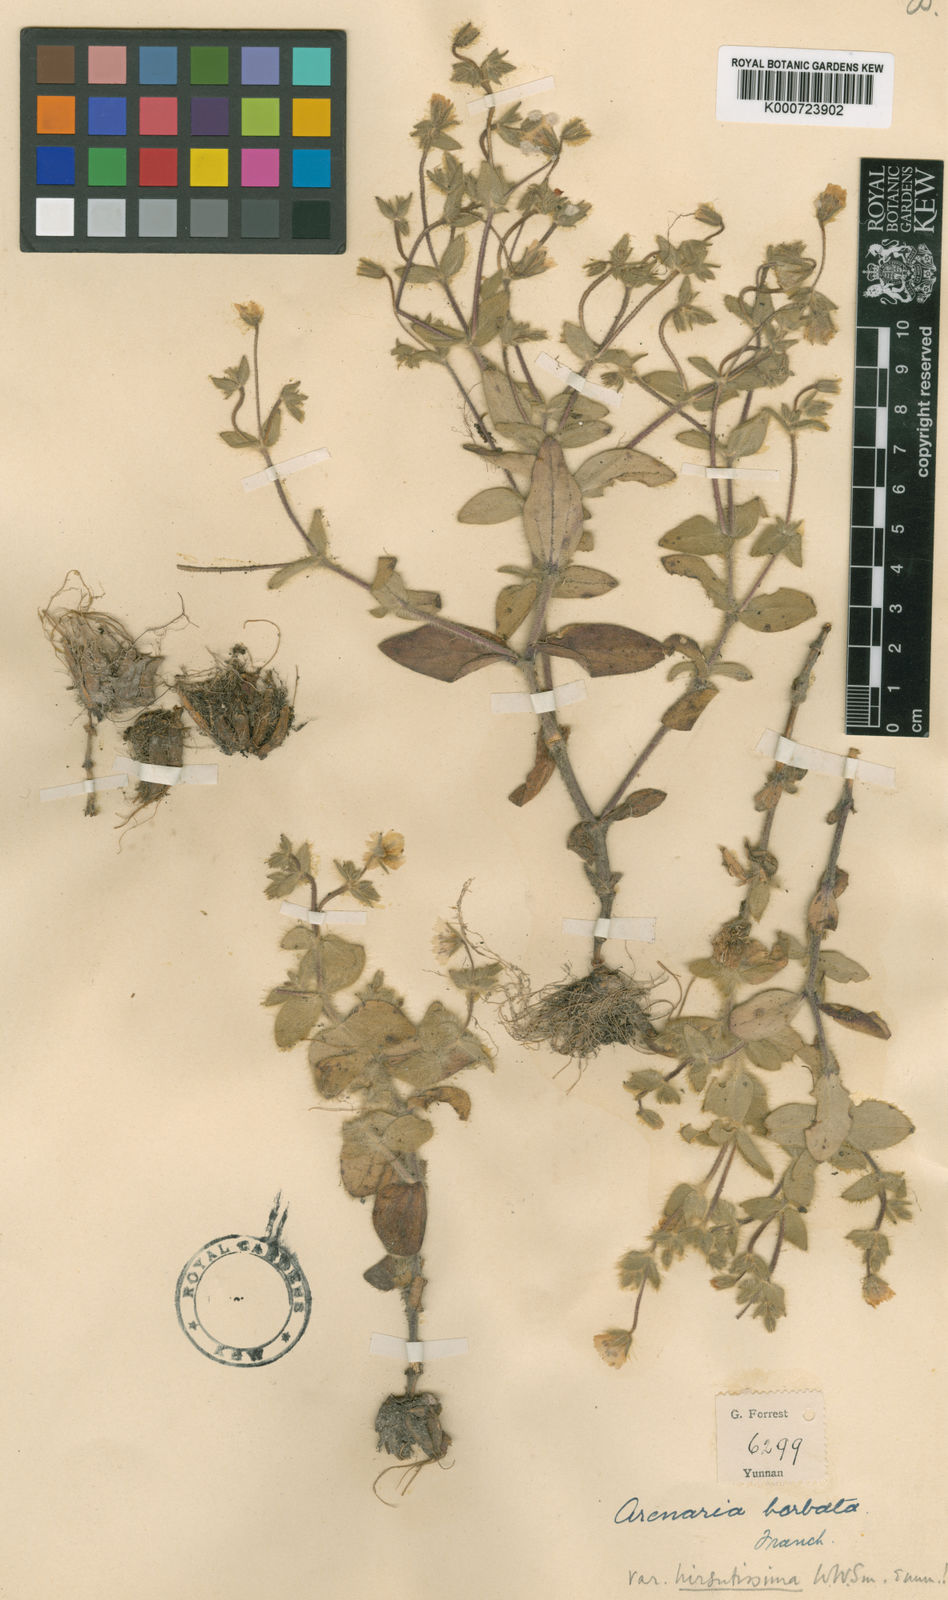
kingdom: Plantae
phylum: Tracheophyta
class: Magnoliopsida
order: Caryophyllales
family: Caryophyllaceae
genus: Odontostemma
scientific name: Odontostemma barbatum
